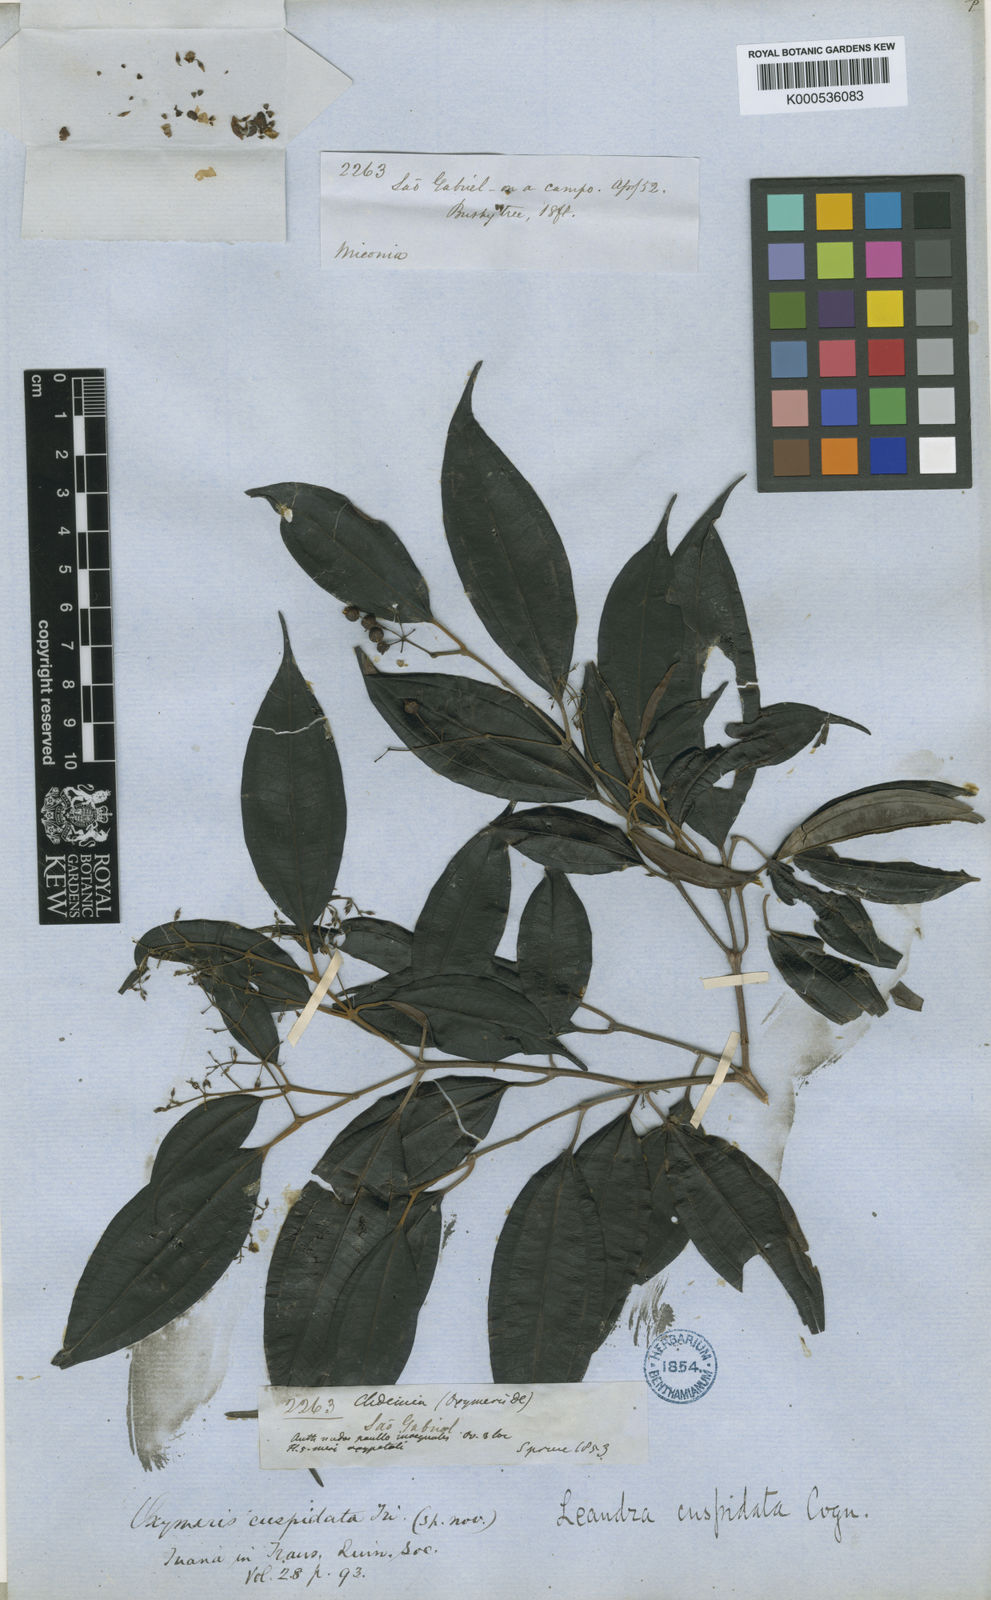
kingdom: Plantae
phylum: Tracheophyta
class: Magnoliopsida
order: Myrtales
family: Melastomataceae
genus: Miconia
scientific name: Miconia eugenioides
